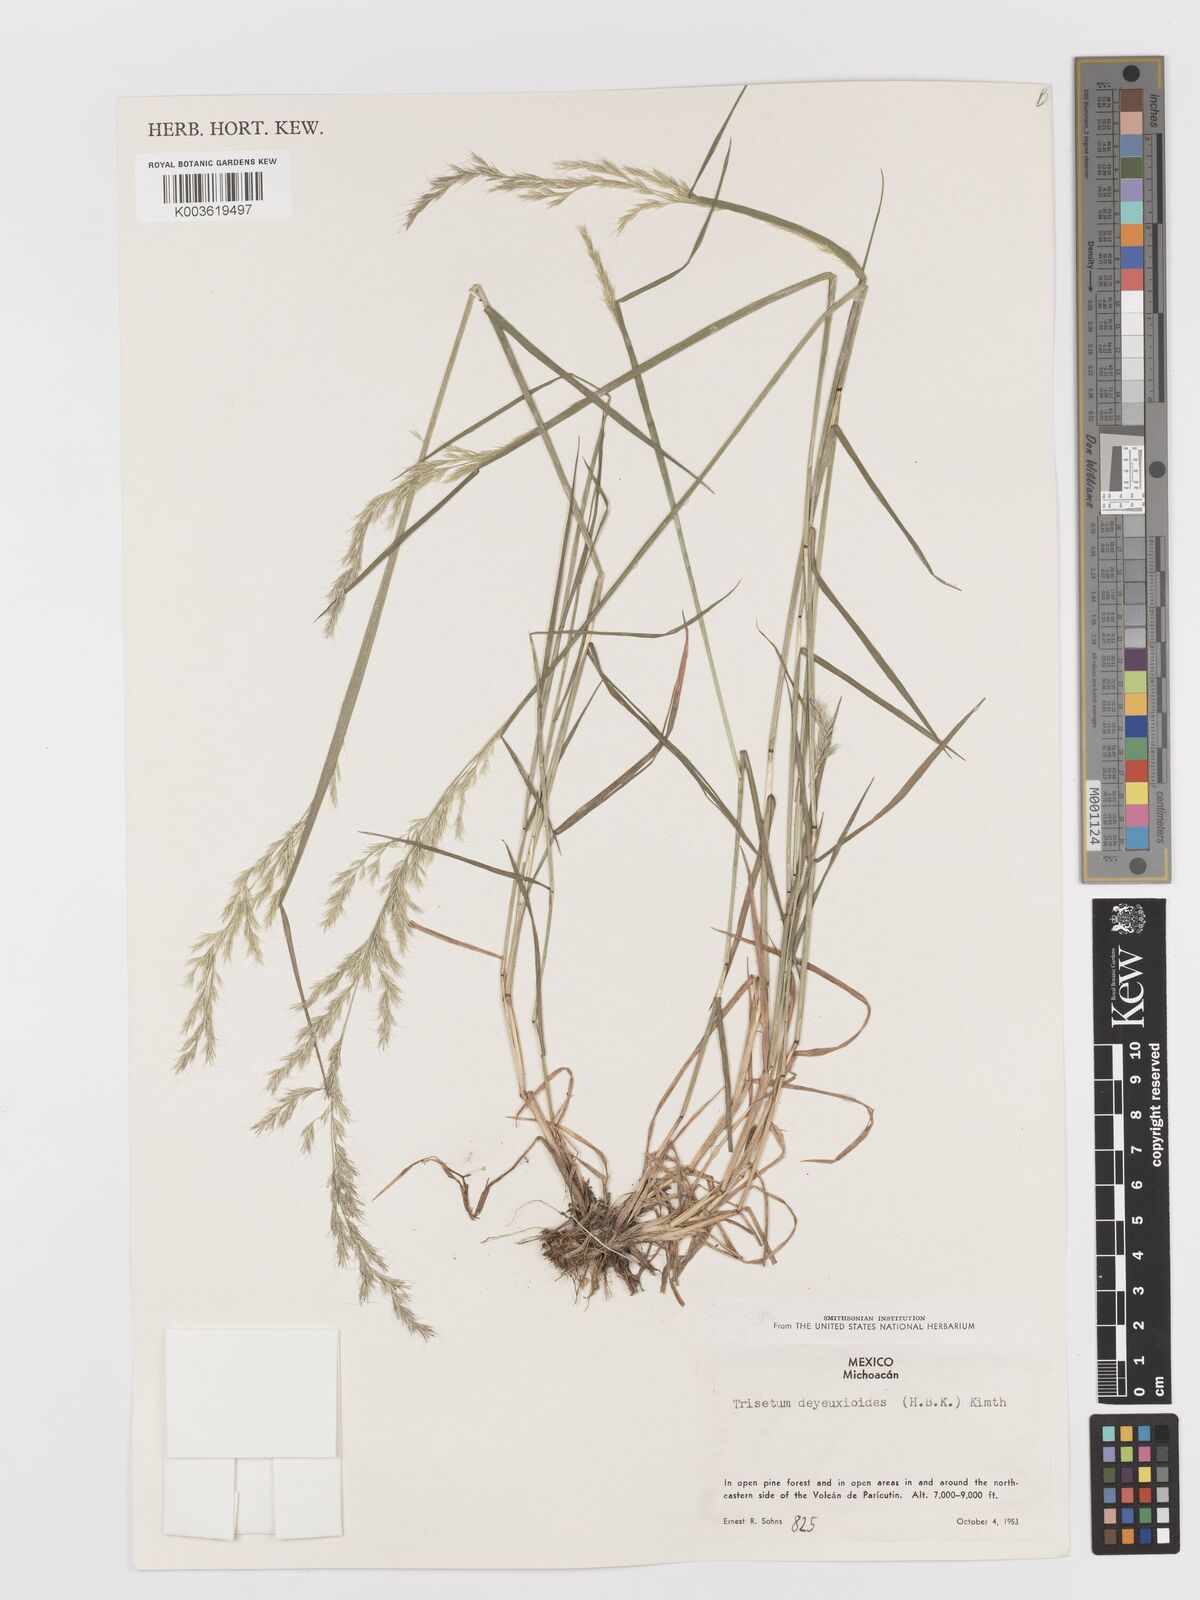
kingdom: Plantae
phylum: Tracheophyta
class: Liliopsida
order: Poales
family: Poaceae
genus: Peyritschia
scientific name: Peyritschia deyeuxioides
